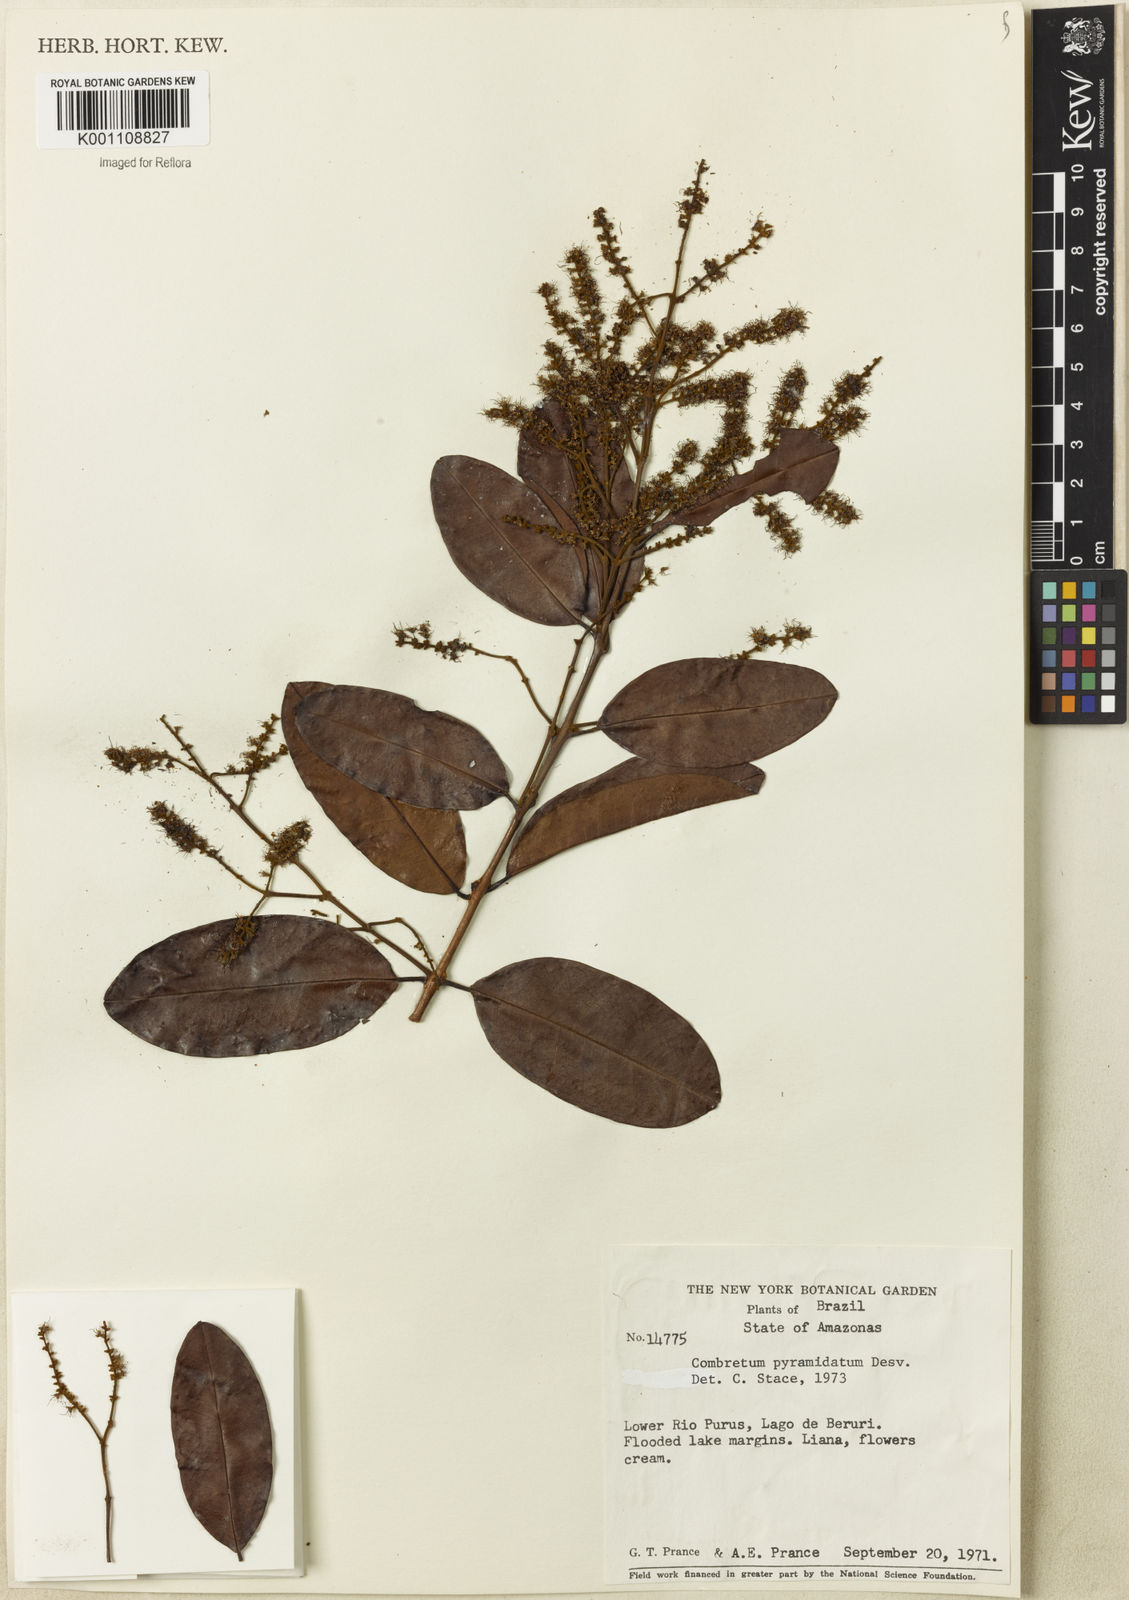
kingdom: Plantae
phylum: Tracheophyta
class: Magnoliopsida
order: Myrtales
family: Combretaceae
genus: Combretum
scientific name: Combretum pyramidatum
